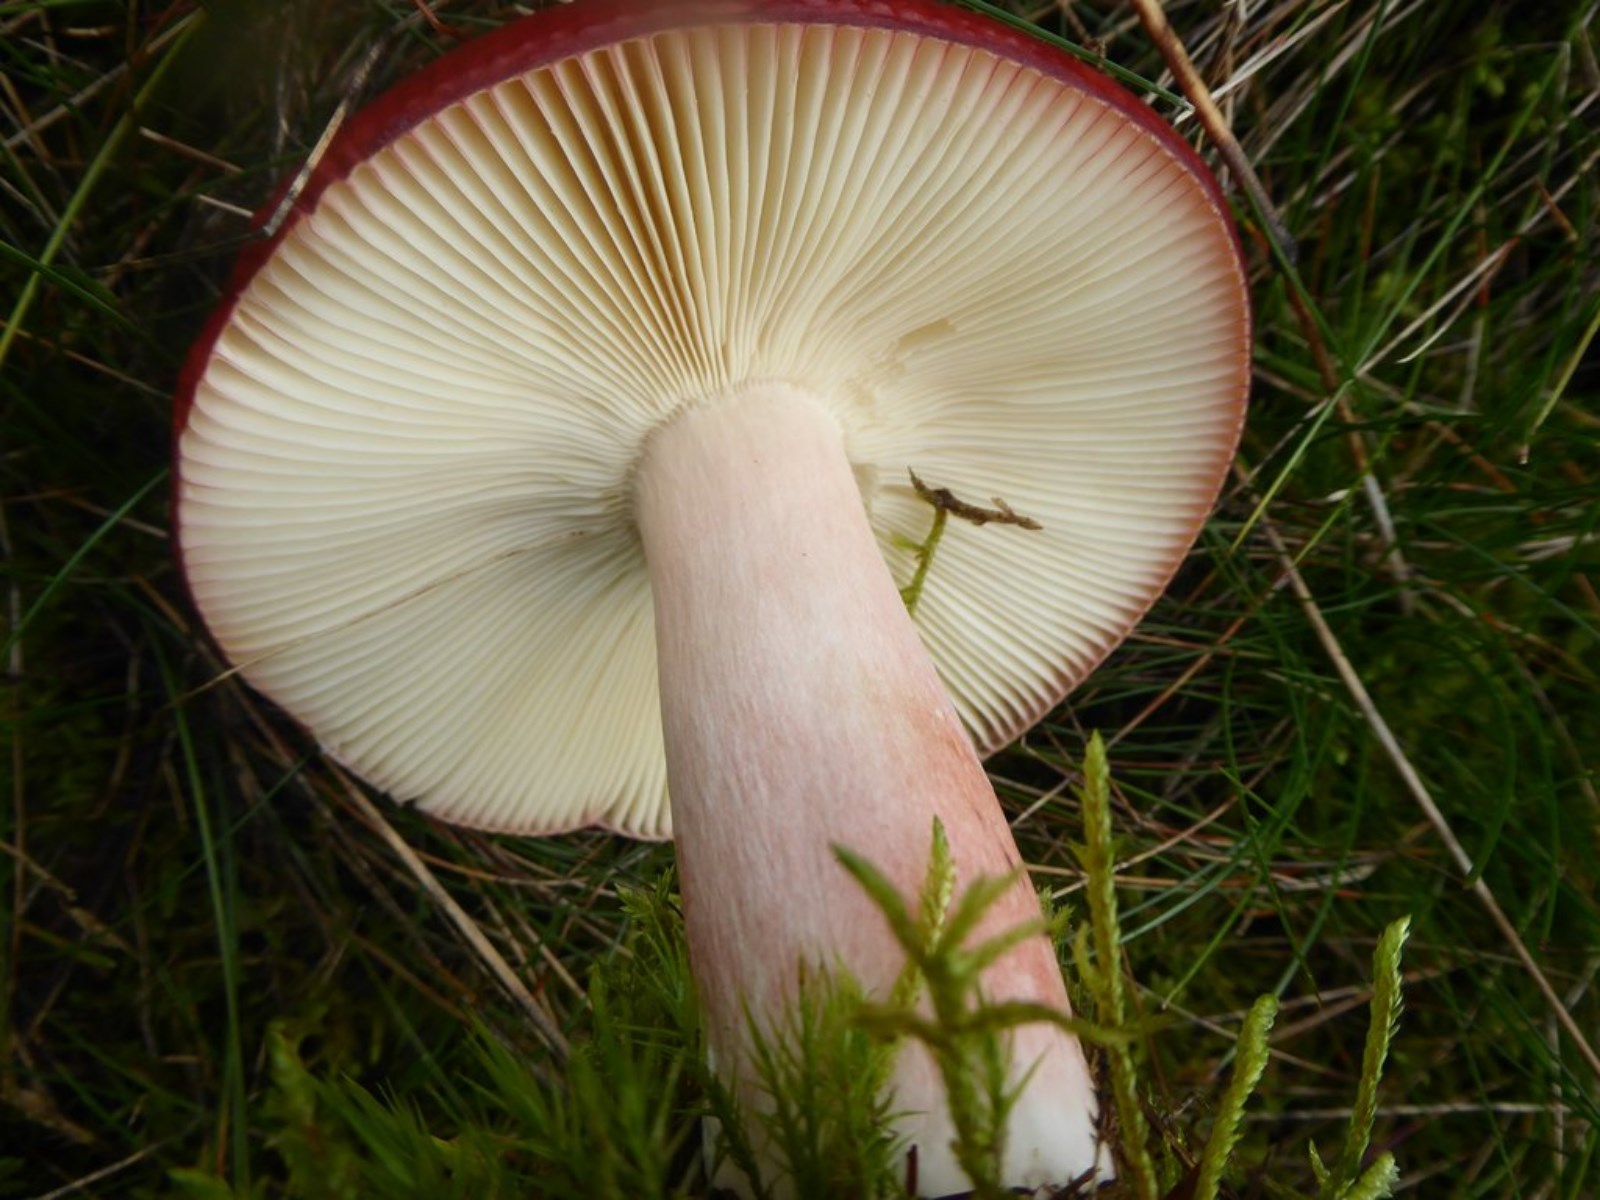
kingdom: Fungi
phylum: Basidiomycota
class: Agaricomycetes
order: Russulales
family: Russulaceae
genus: Russula
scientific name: Russula paludosa
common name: prægtig skørhat
